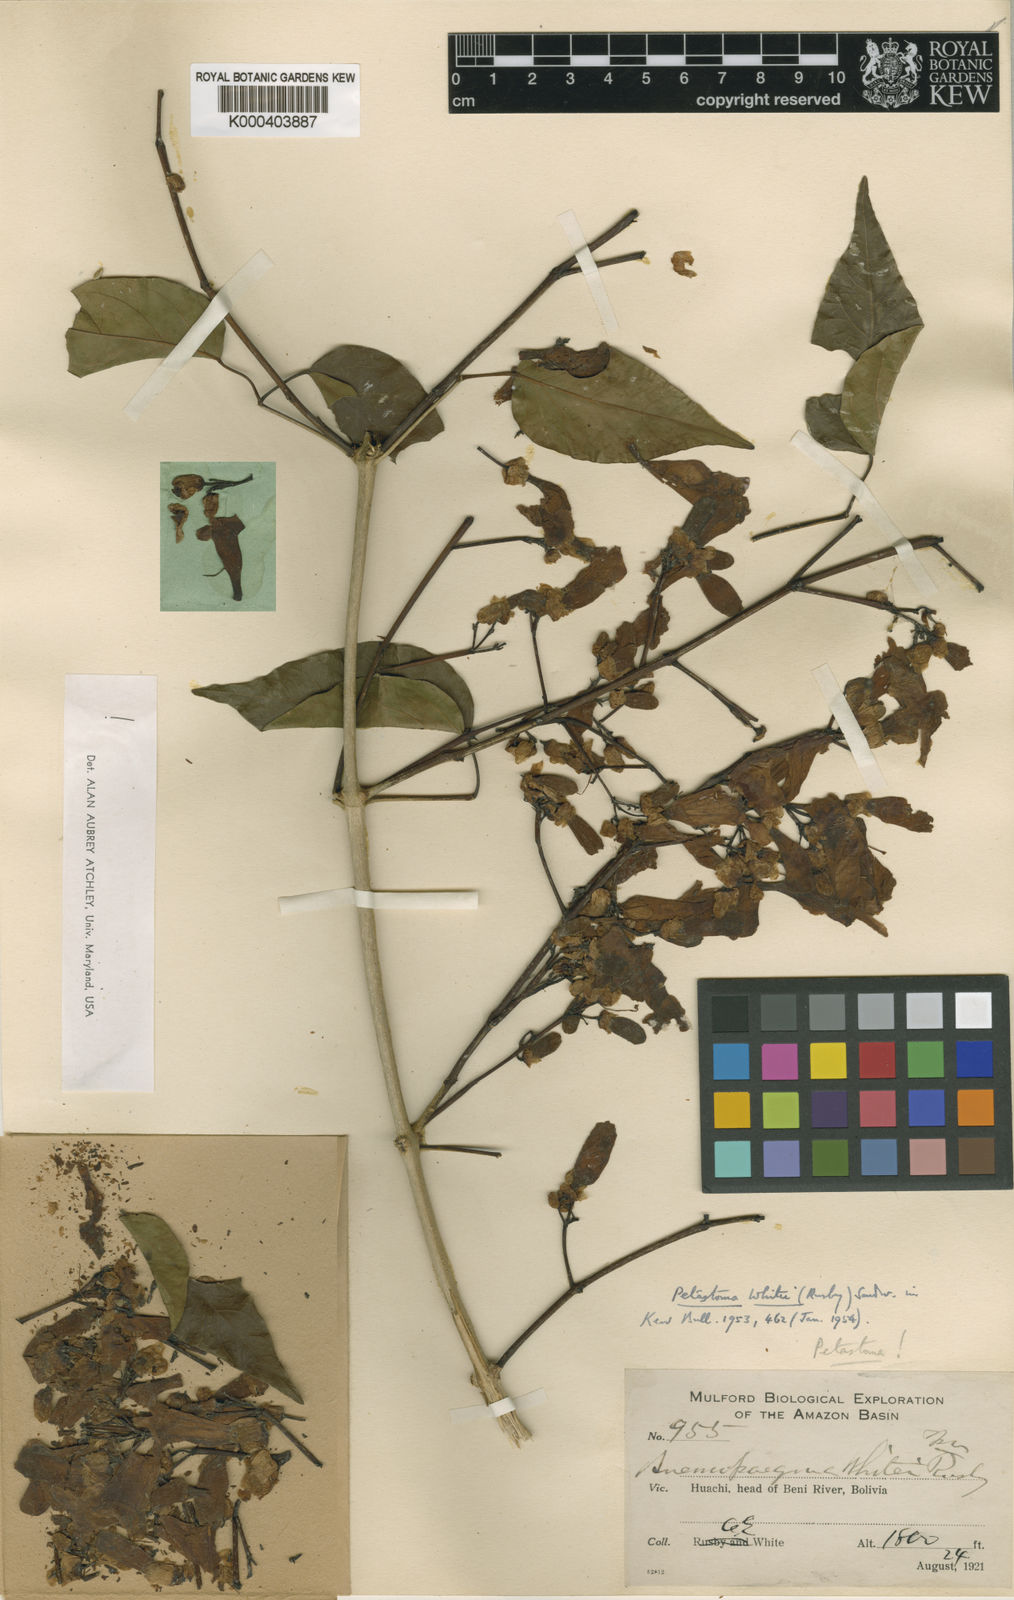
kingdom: Plantae
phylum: Tracheophyta
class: Magnoliopsida
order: Lamiales
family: Bignoniaceae
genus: Cuspidaria
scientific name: Cuspidaria pulchra
